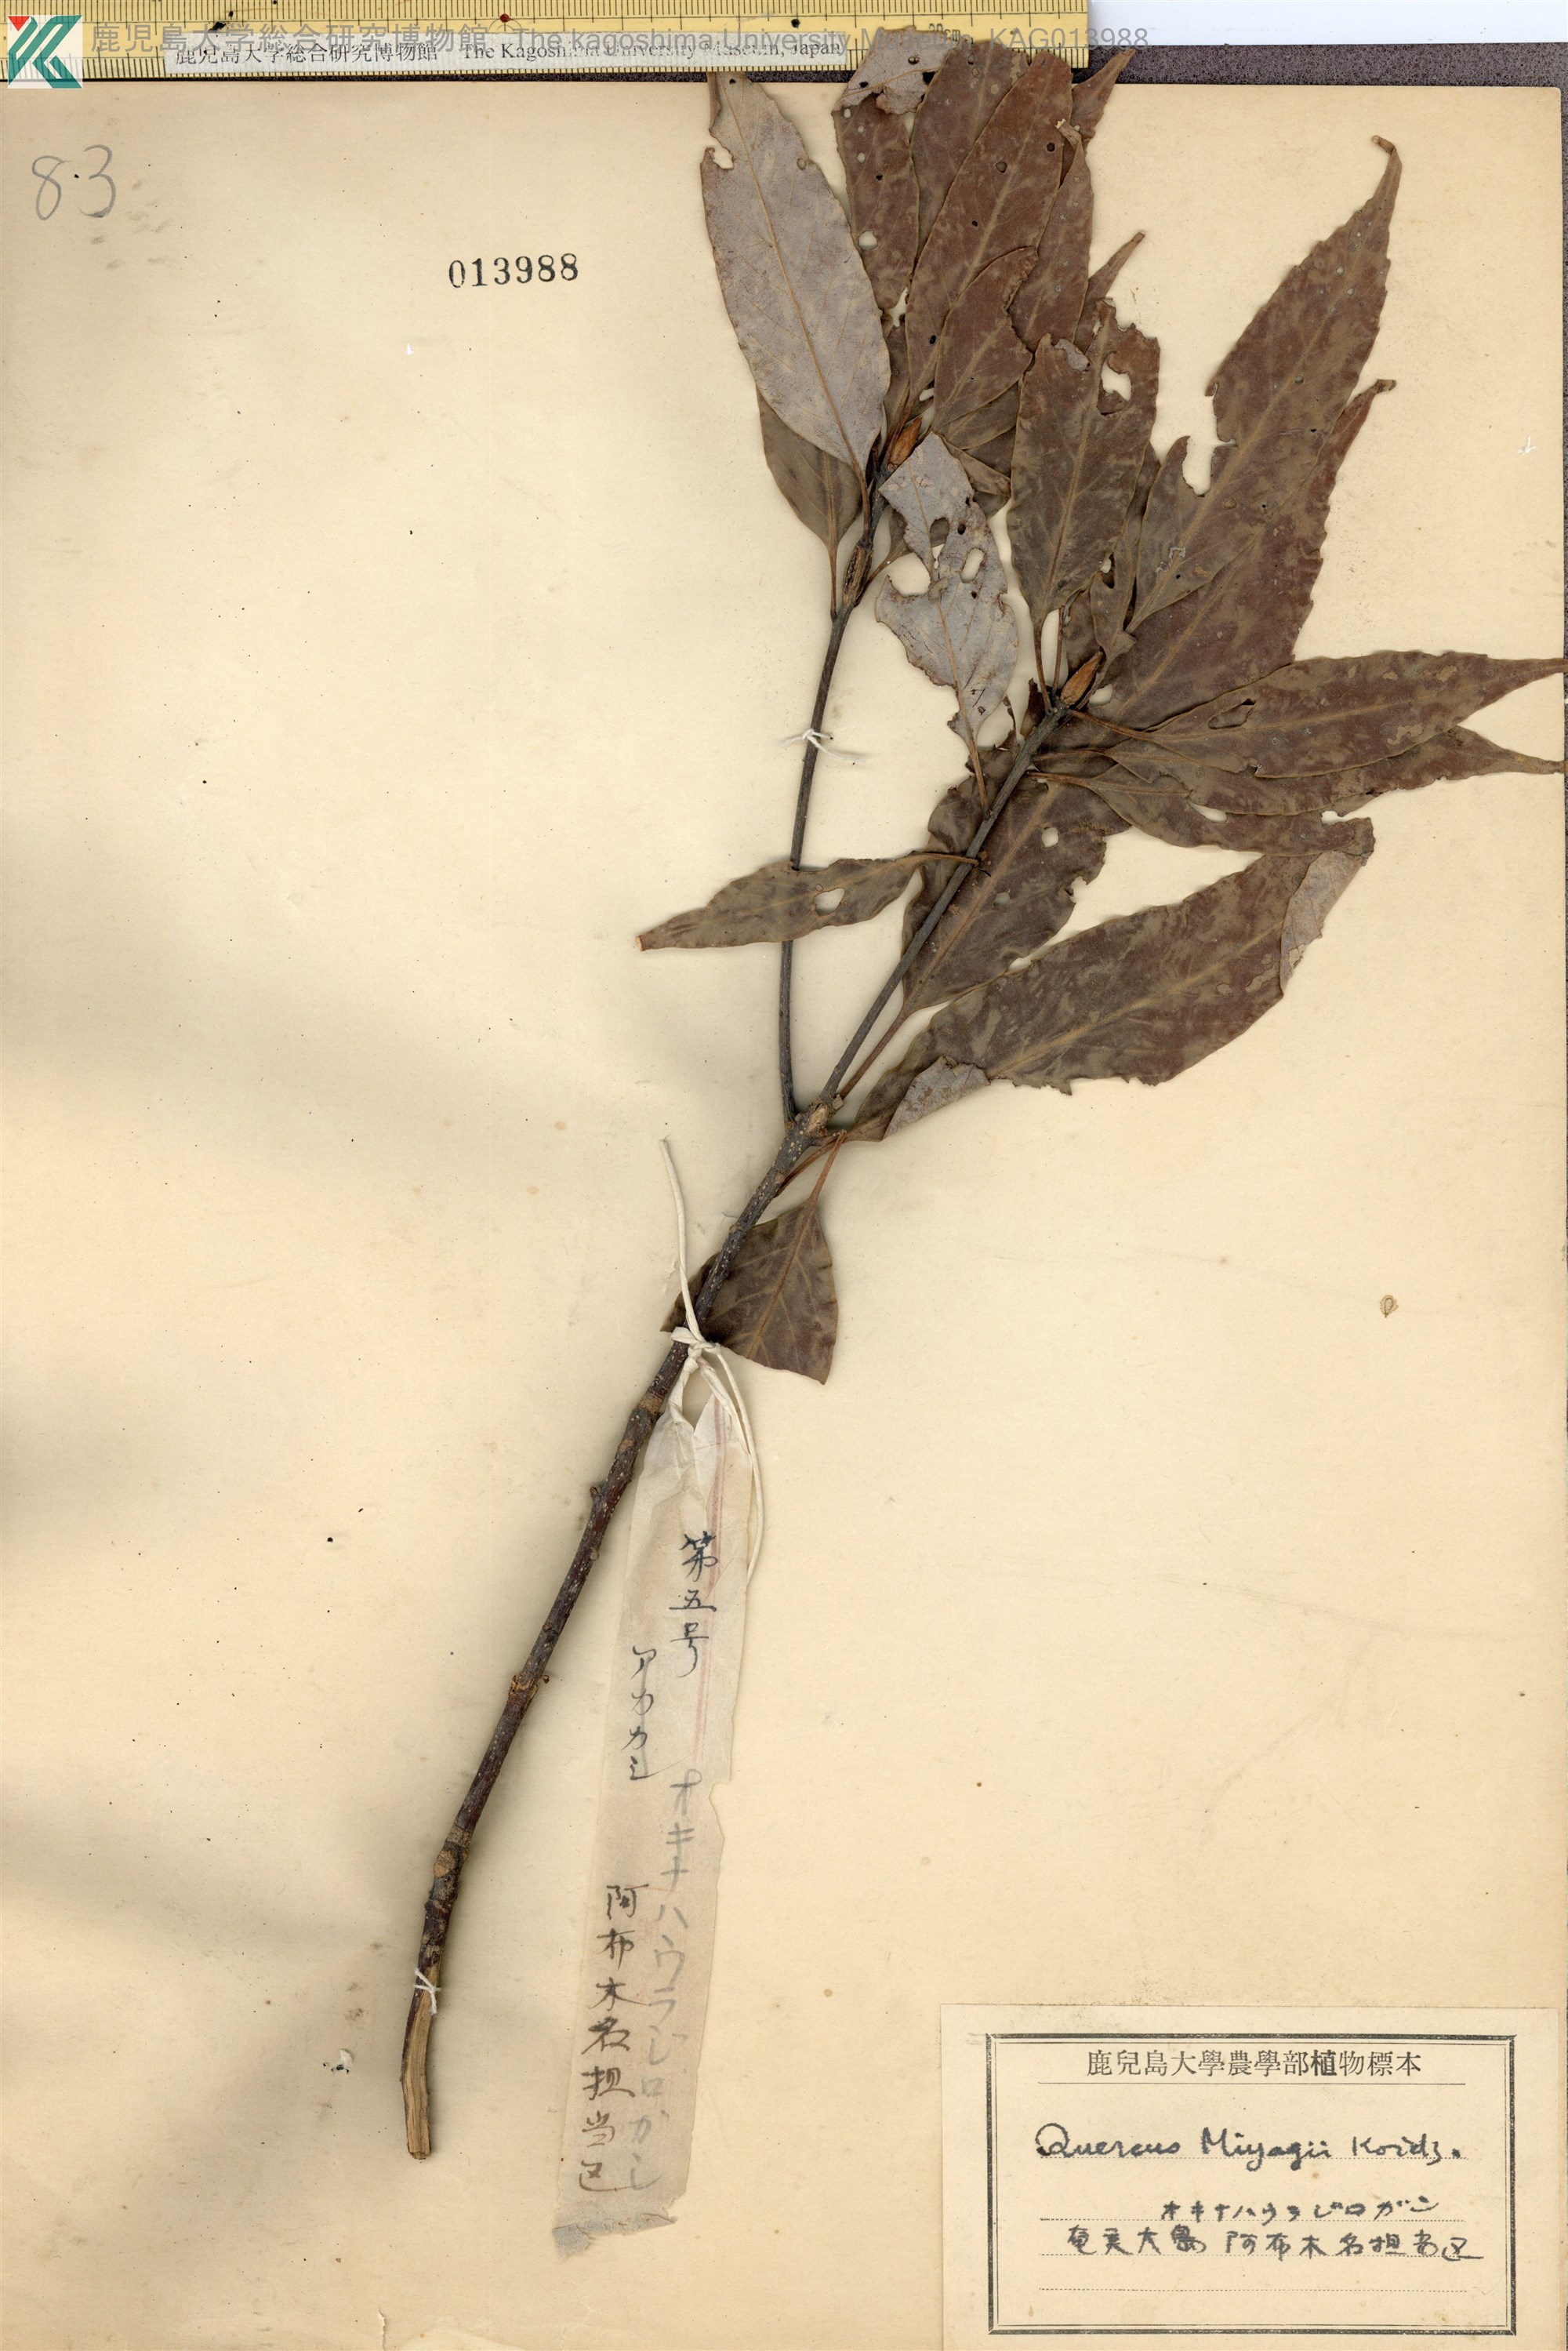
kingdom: Plantae
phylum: Tracheophyta
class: Magnoliopsida
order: Fagales
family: Fagaceae
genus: Quercus
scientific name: Quercus miyagii
